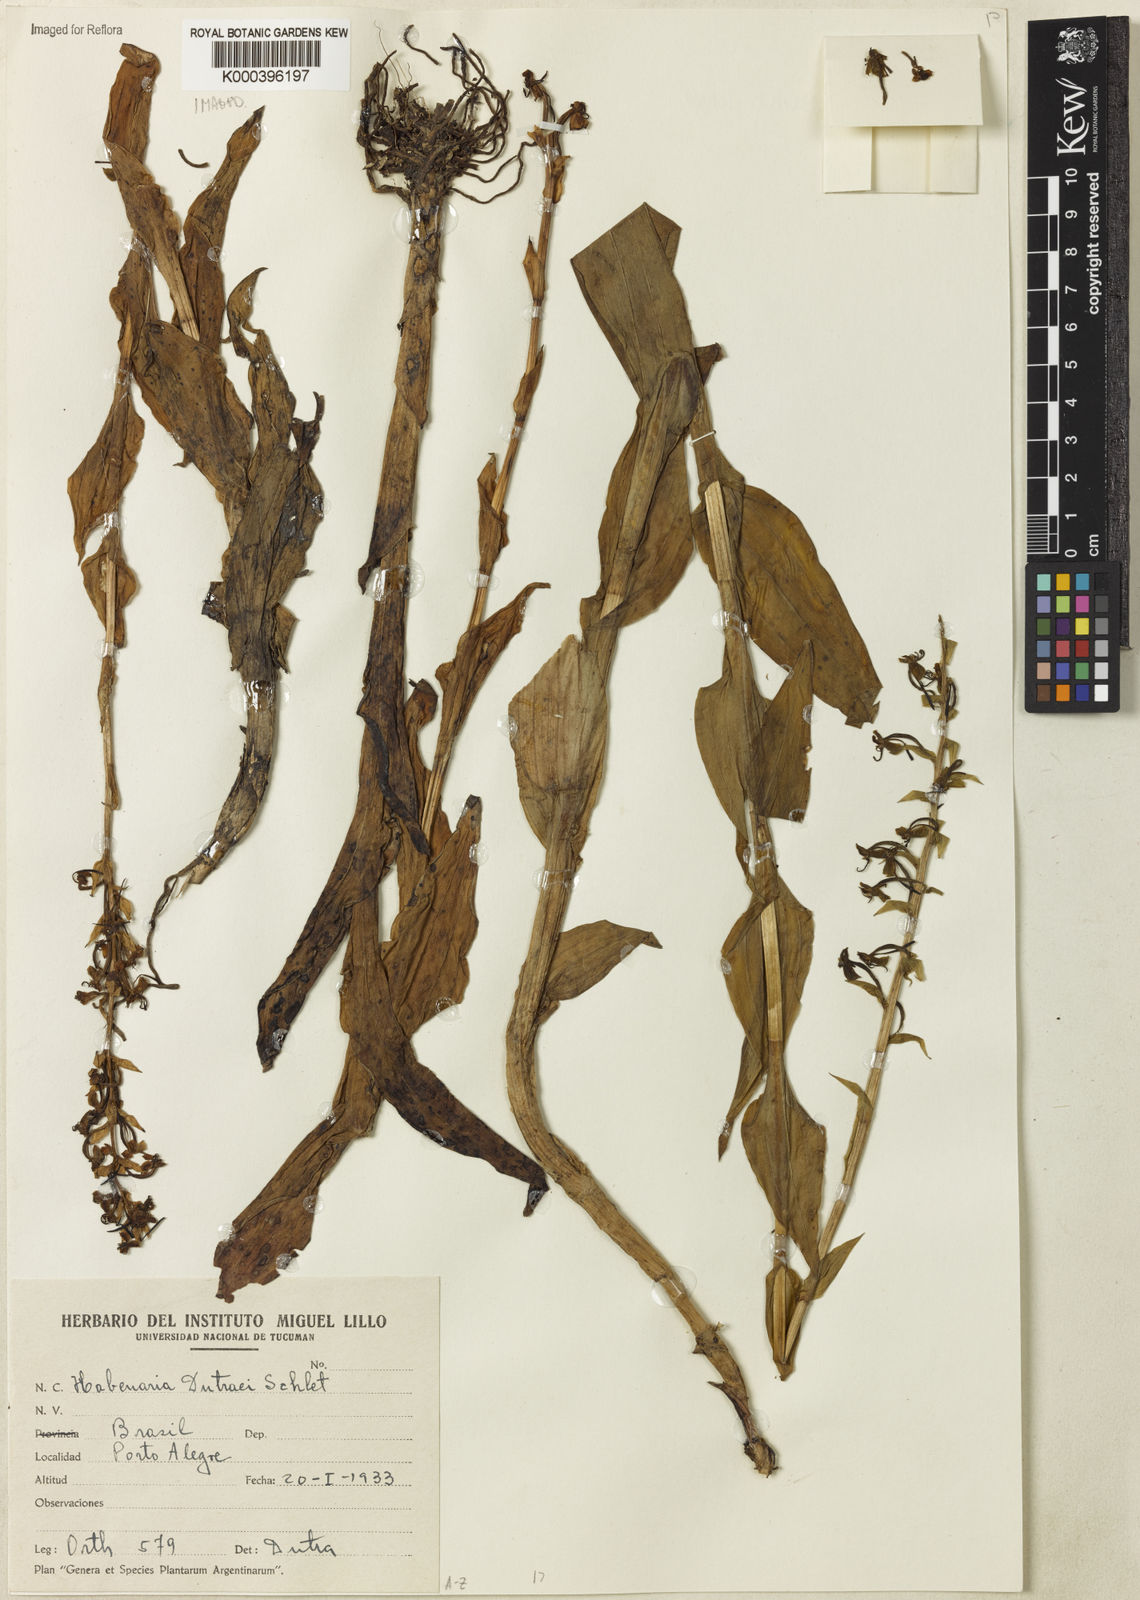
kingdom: Plantae
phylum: Tracheophyta
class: Liliopsida
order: Asparagales
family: Orchidaceae
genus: Habenaria
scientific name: Habenaria
